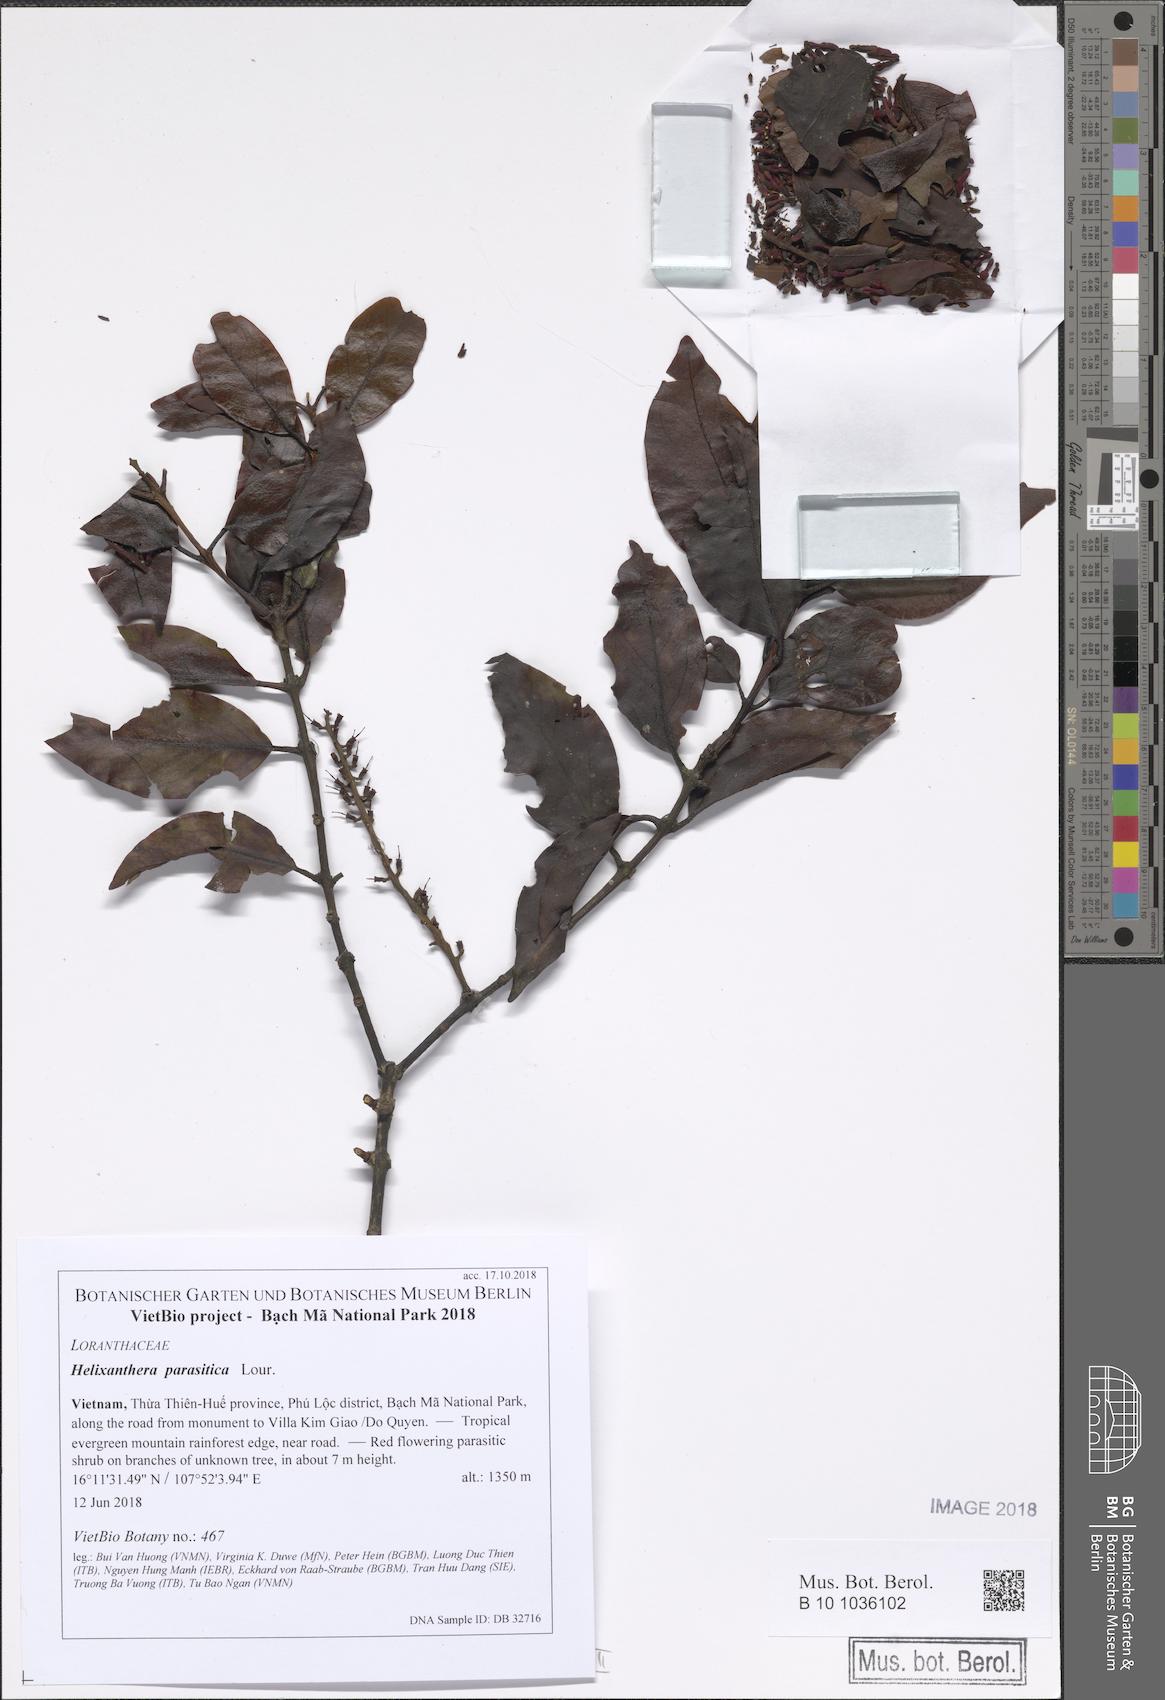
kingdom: Plantae
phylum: Tracheophyta
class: Magnoliopsida
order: Santalales
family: Loranthaceae
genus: Helixanthera
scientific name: Helixanthera parasitica
